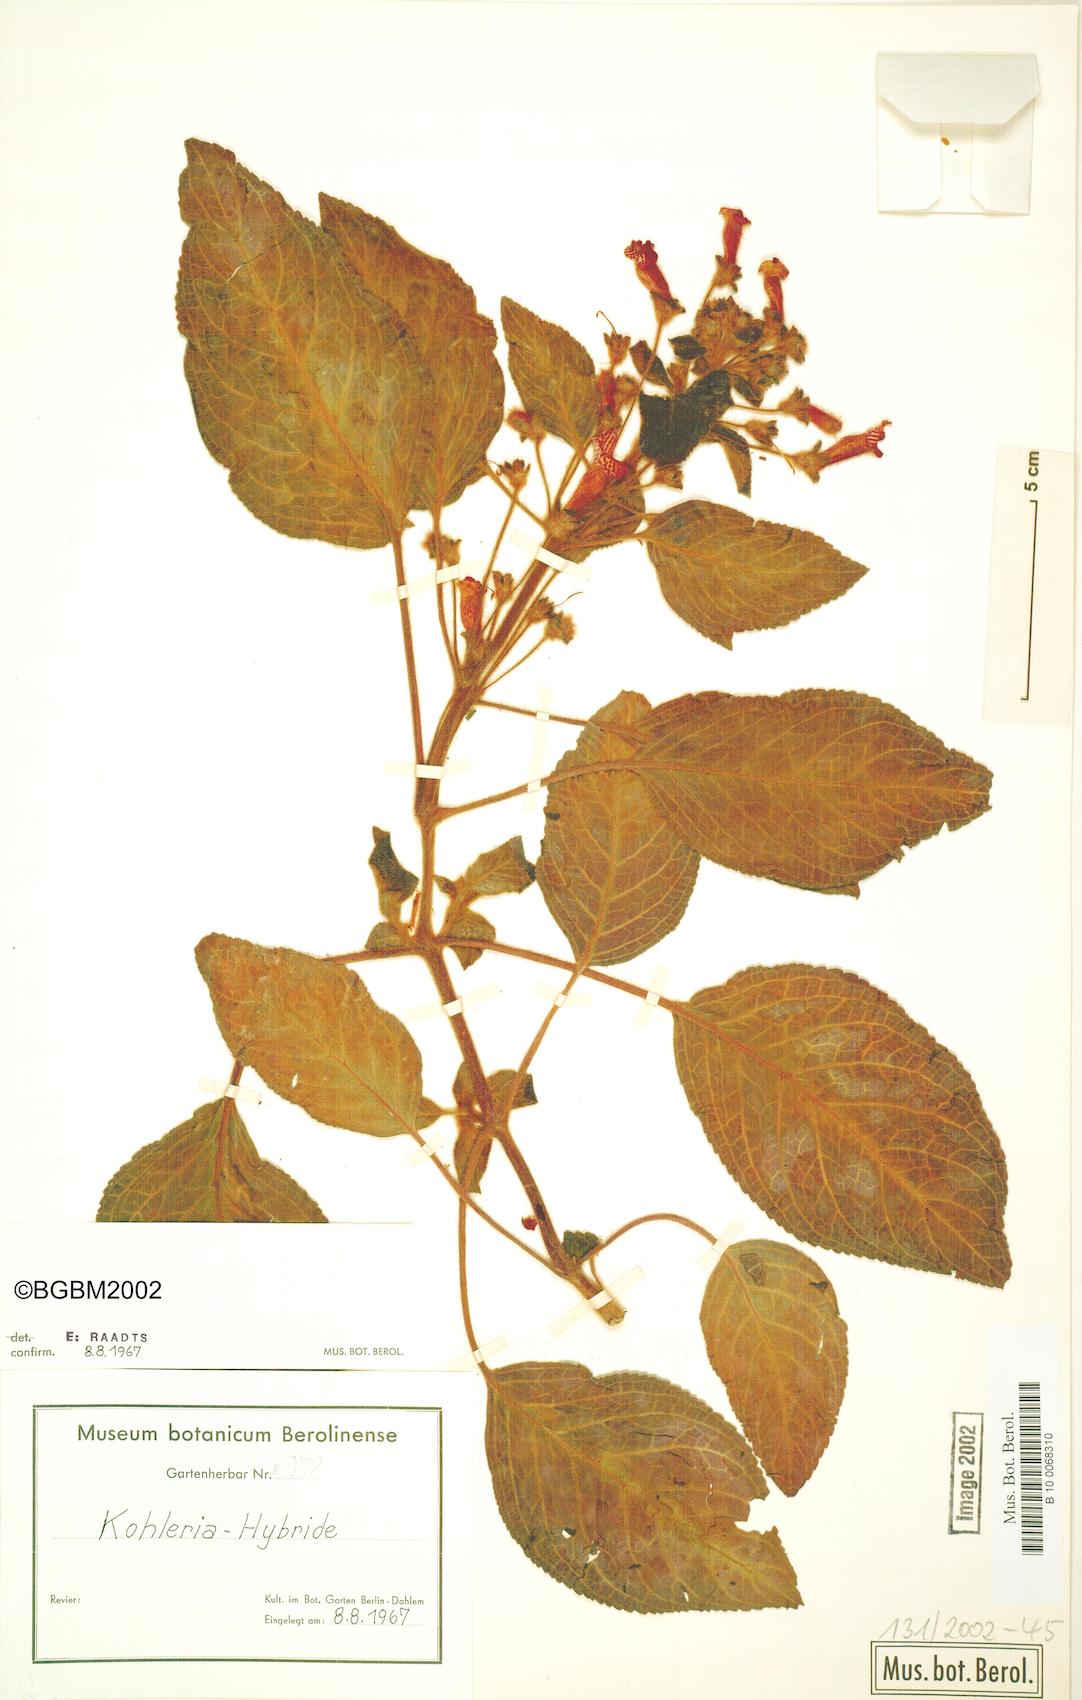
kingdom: Plantae
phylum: Tracheophyta
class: Magnoliopsida
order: Lamiales
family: Gesneriaceae
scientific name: Gesneriaceae
